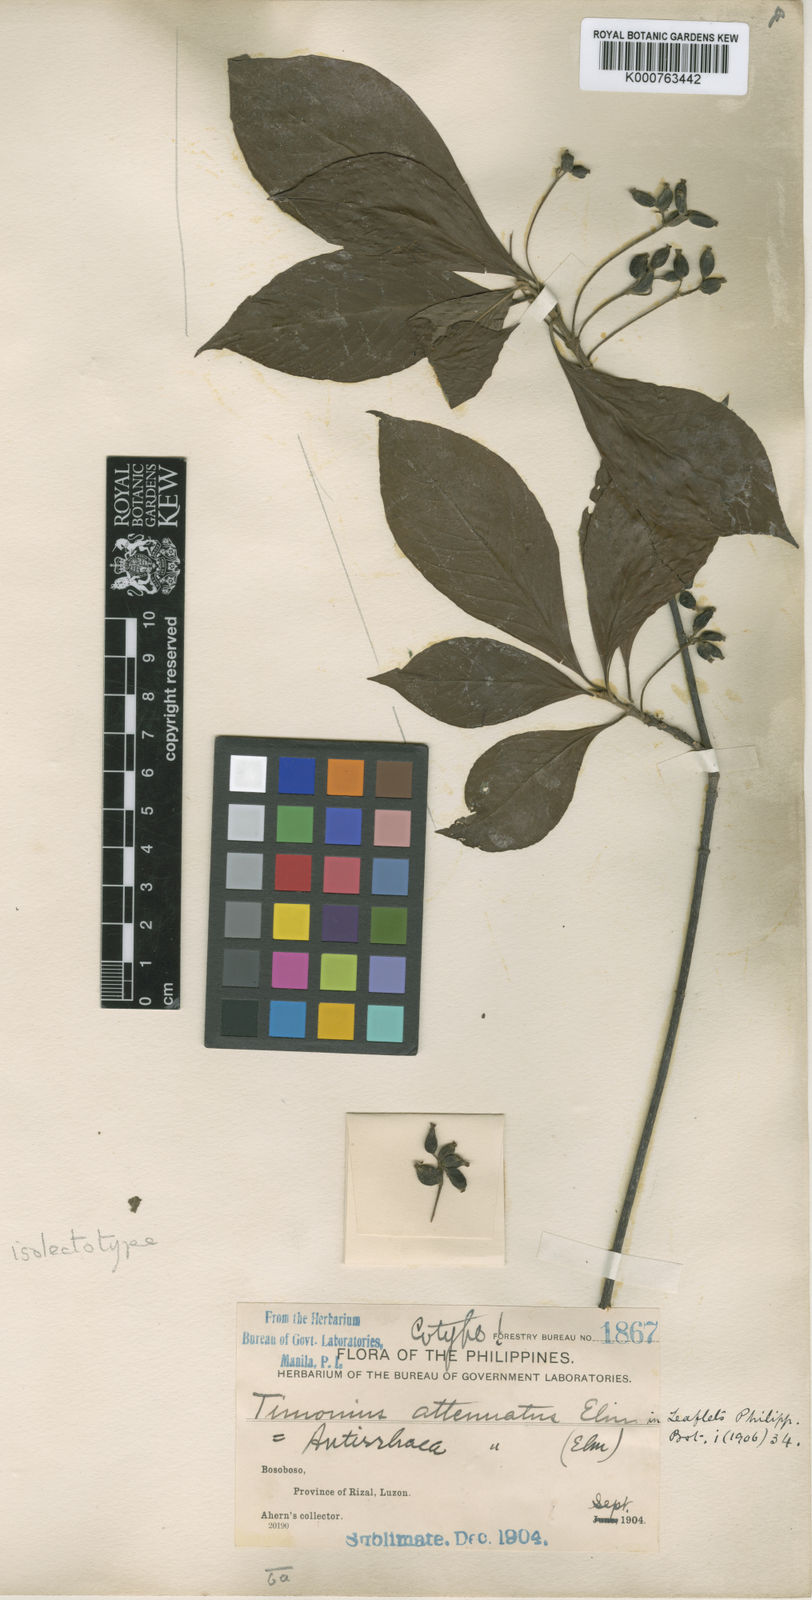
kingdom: Plantae
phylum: Tracheophyta
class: Magnoliopsida
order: Gentianales
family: Rubiaceae
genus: Guettardella
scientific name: Guettardella attenuata
